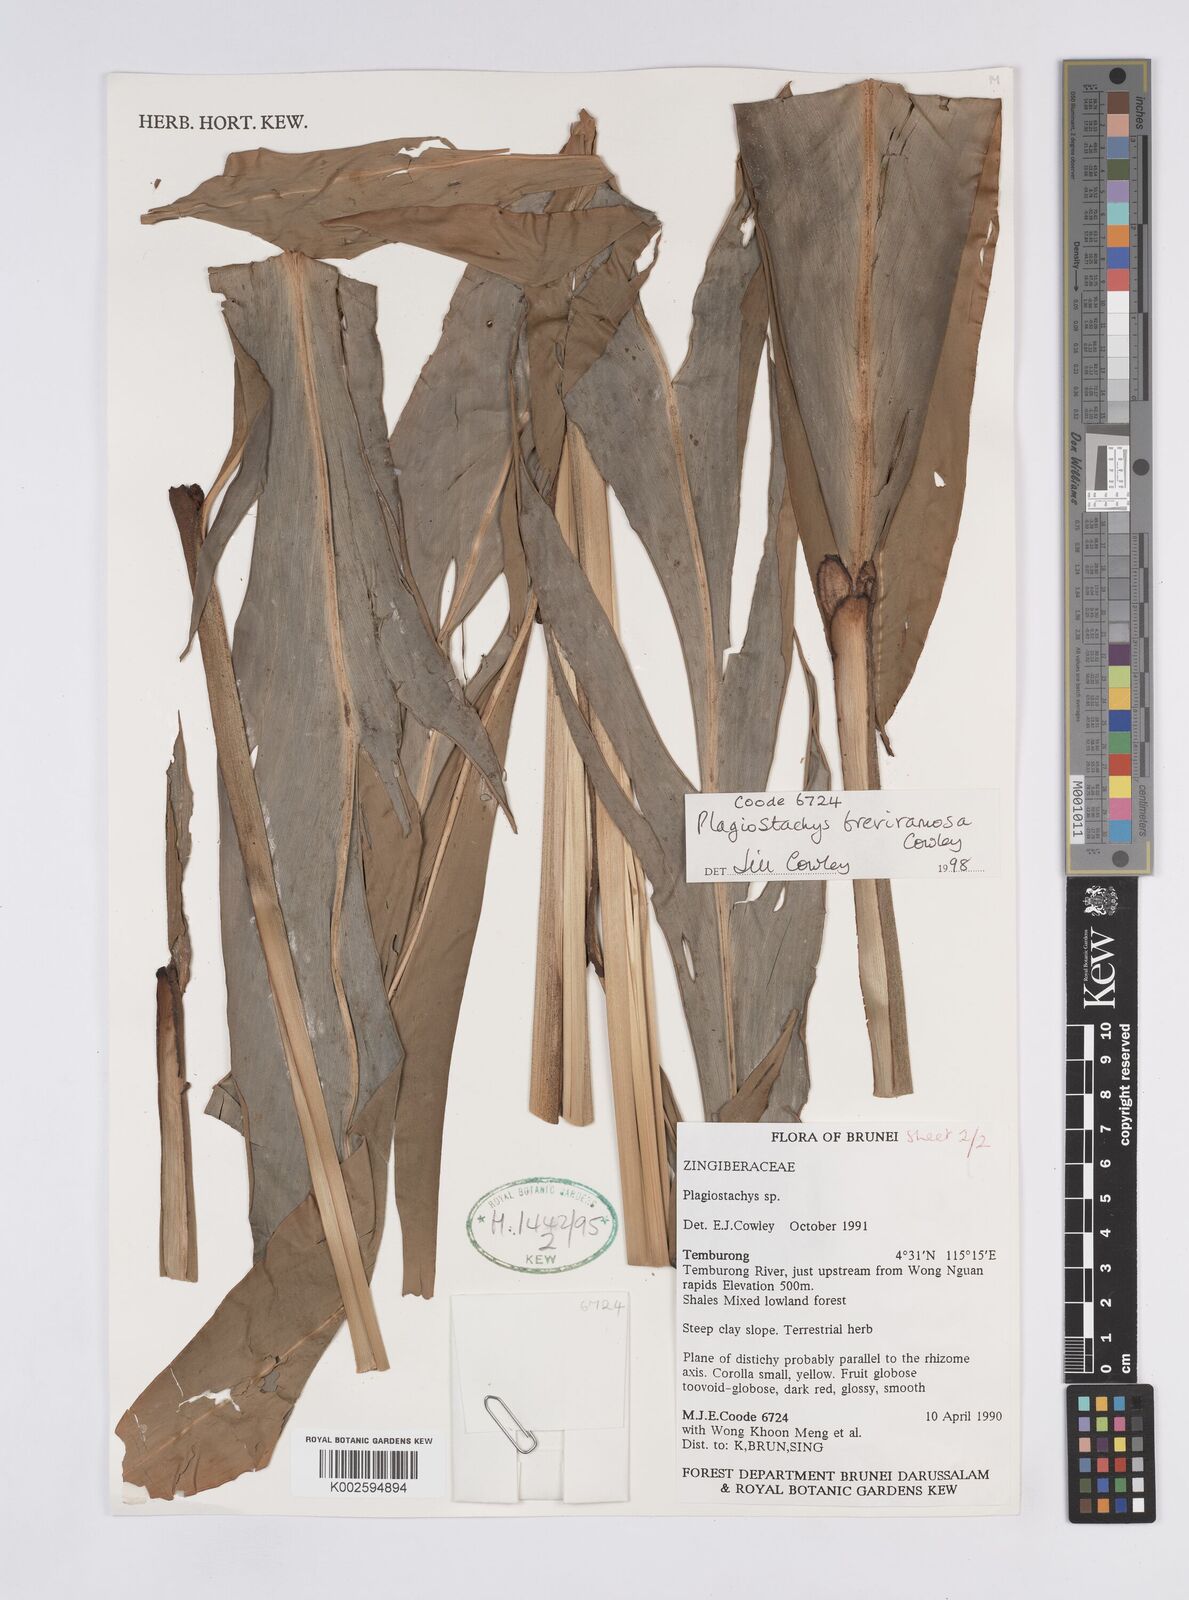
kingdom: Plantae
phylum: Tracheophyta
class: Liliopsida
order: Zingiberales
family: Zingiberaceae
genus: Plagiostachys
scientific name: Plagiostachys breviramosa
